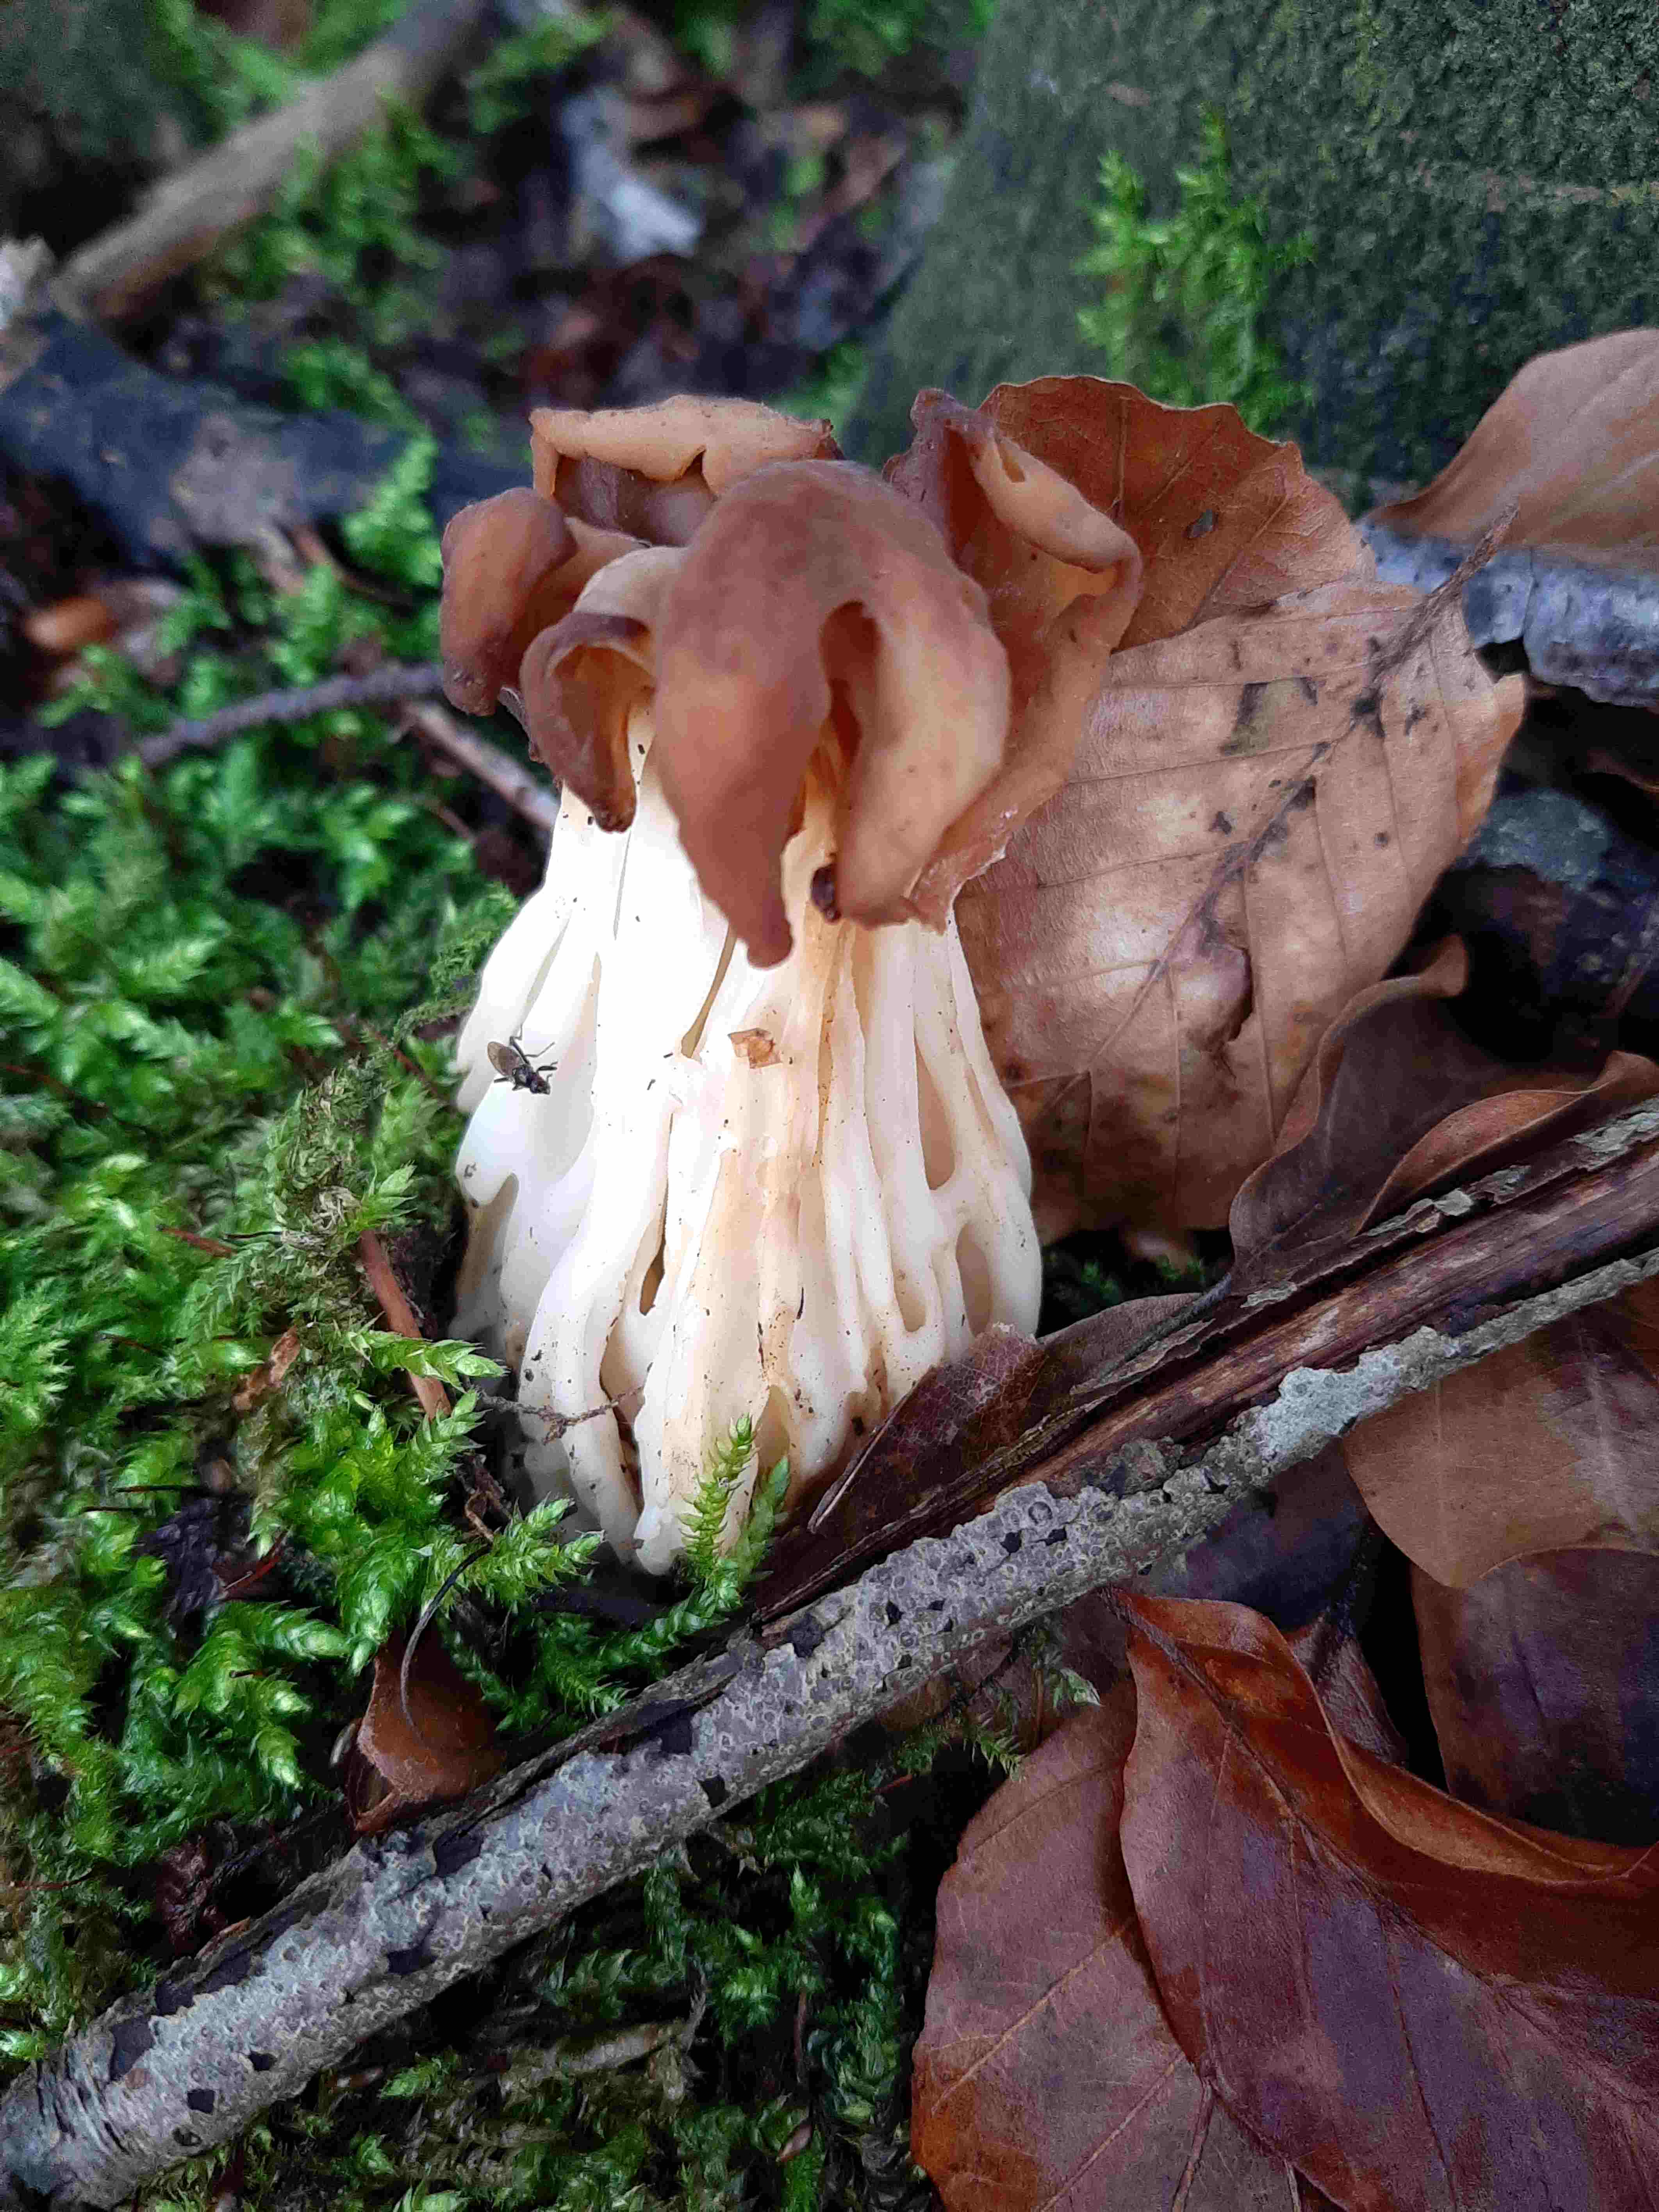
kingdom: Fungi
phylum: Ascomycota
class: Pezizomycetes
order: Pezizales
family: Helvellaceae
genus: Helvella
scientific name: Helvella crispa
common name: kruset foldhat
